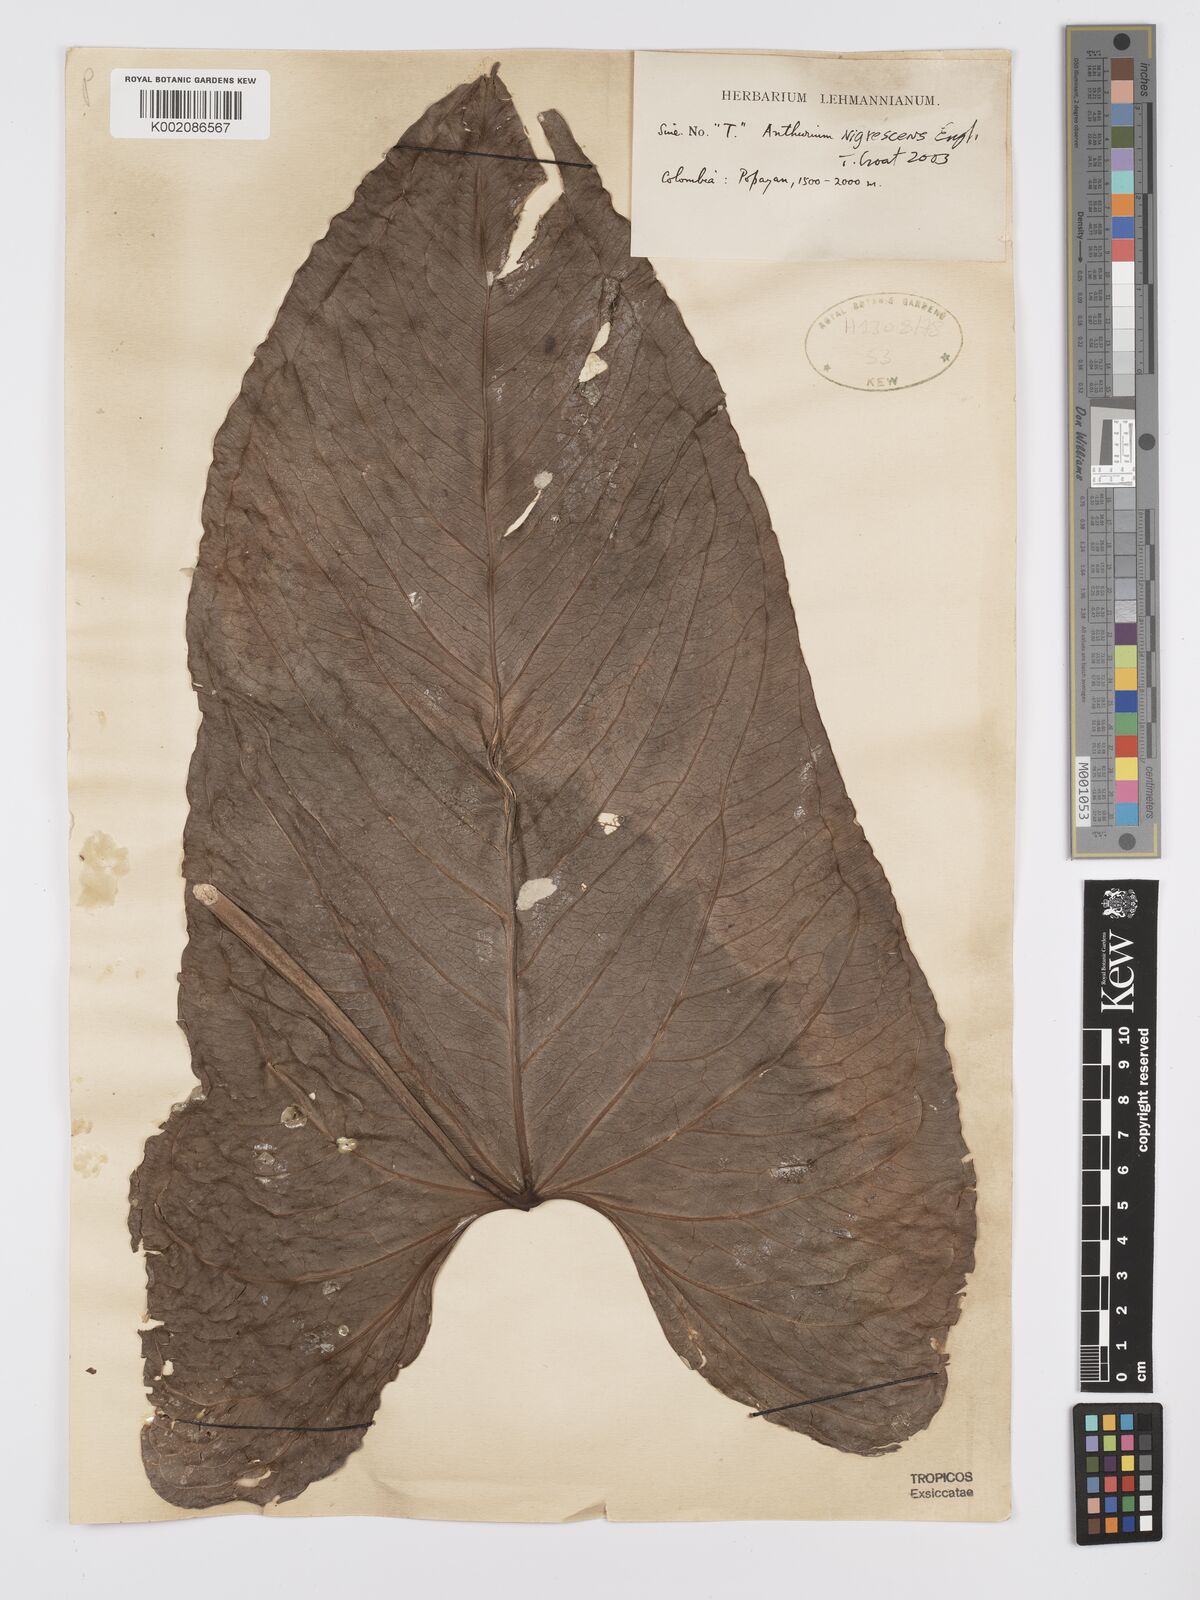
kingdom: Plantae
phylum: Tracheophyta
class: Liliopsida
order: Alismatales
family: Araceae
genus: Anthurium
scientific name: Anthurium nigrescens
